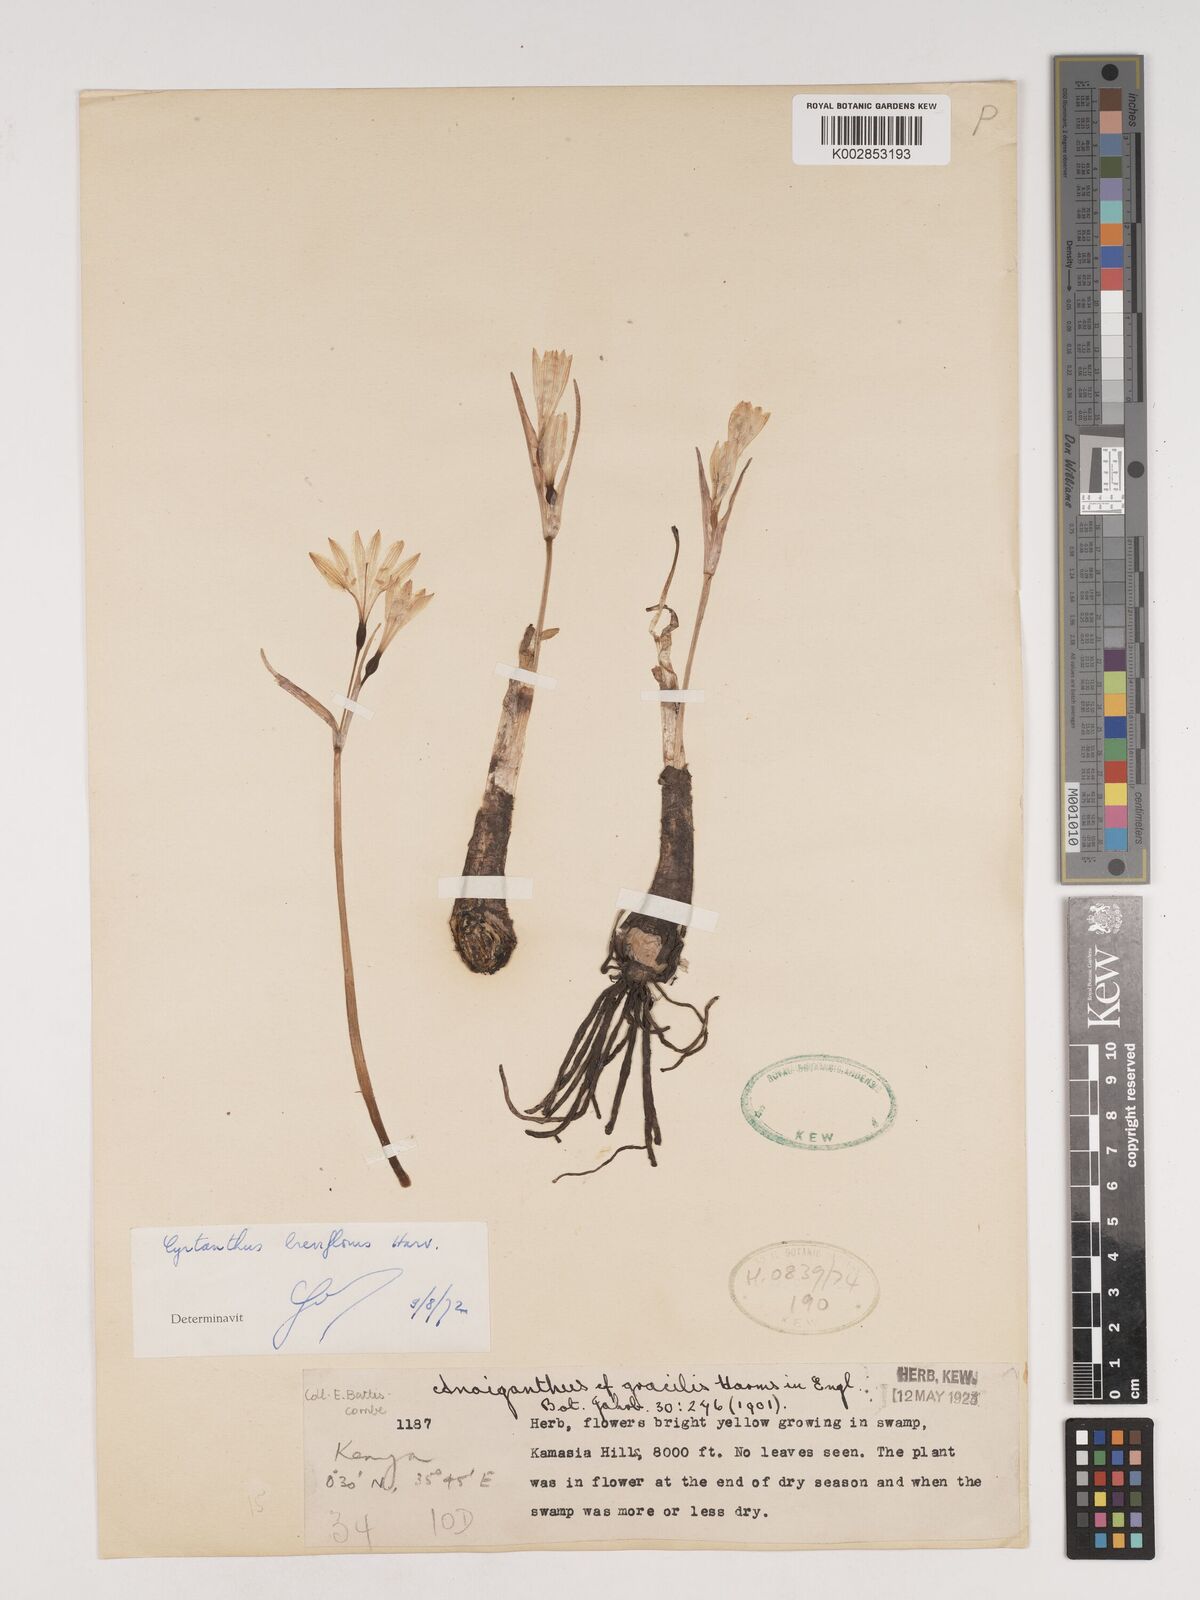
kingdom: Plantae
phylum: Tracheophyta
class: Liliopsida
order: Asparagales
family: Amaryllidaceae
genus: Cyrtanthus
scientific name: Cyrtanthus breviflorus
